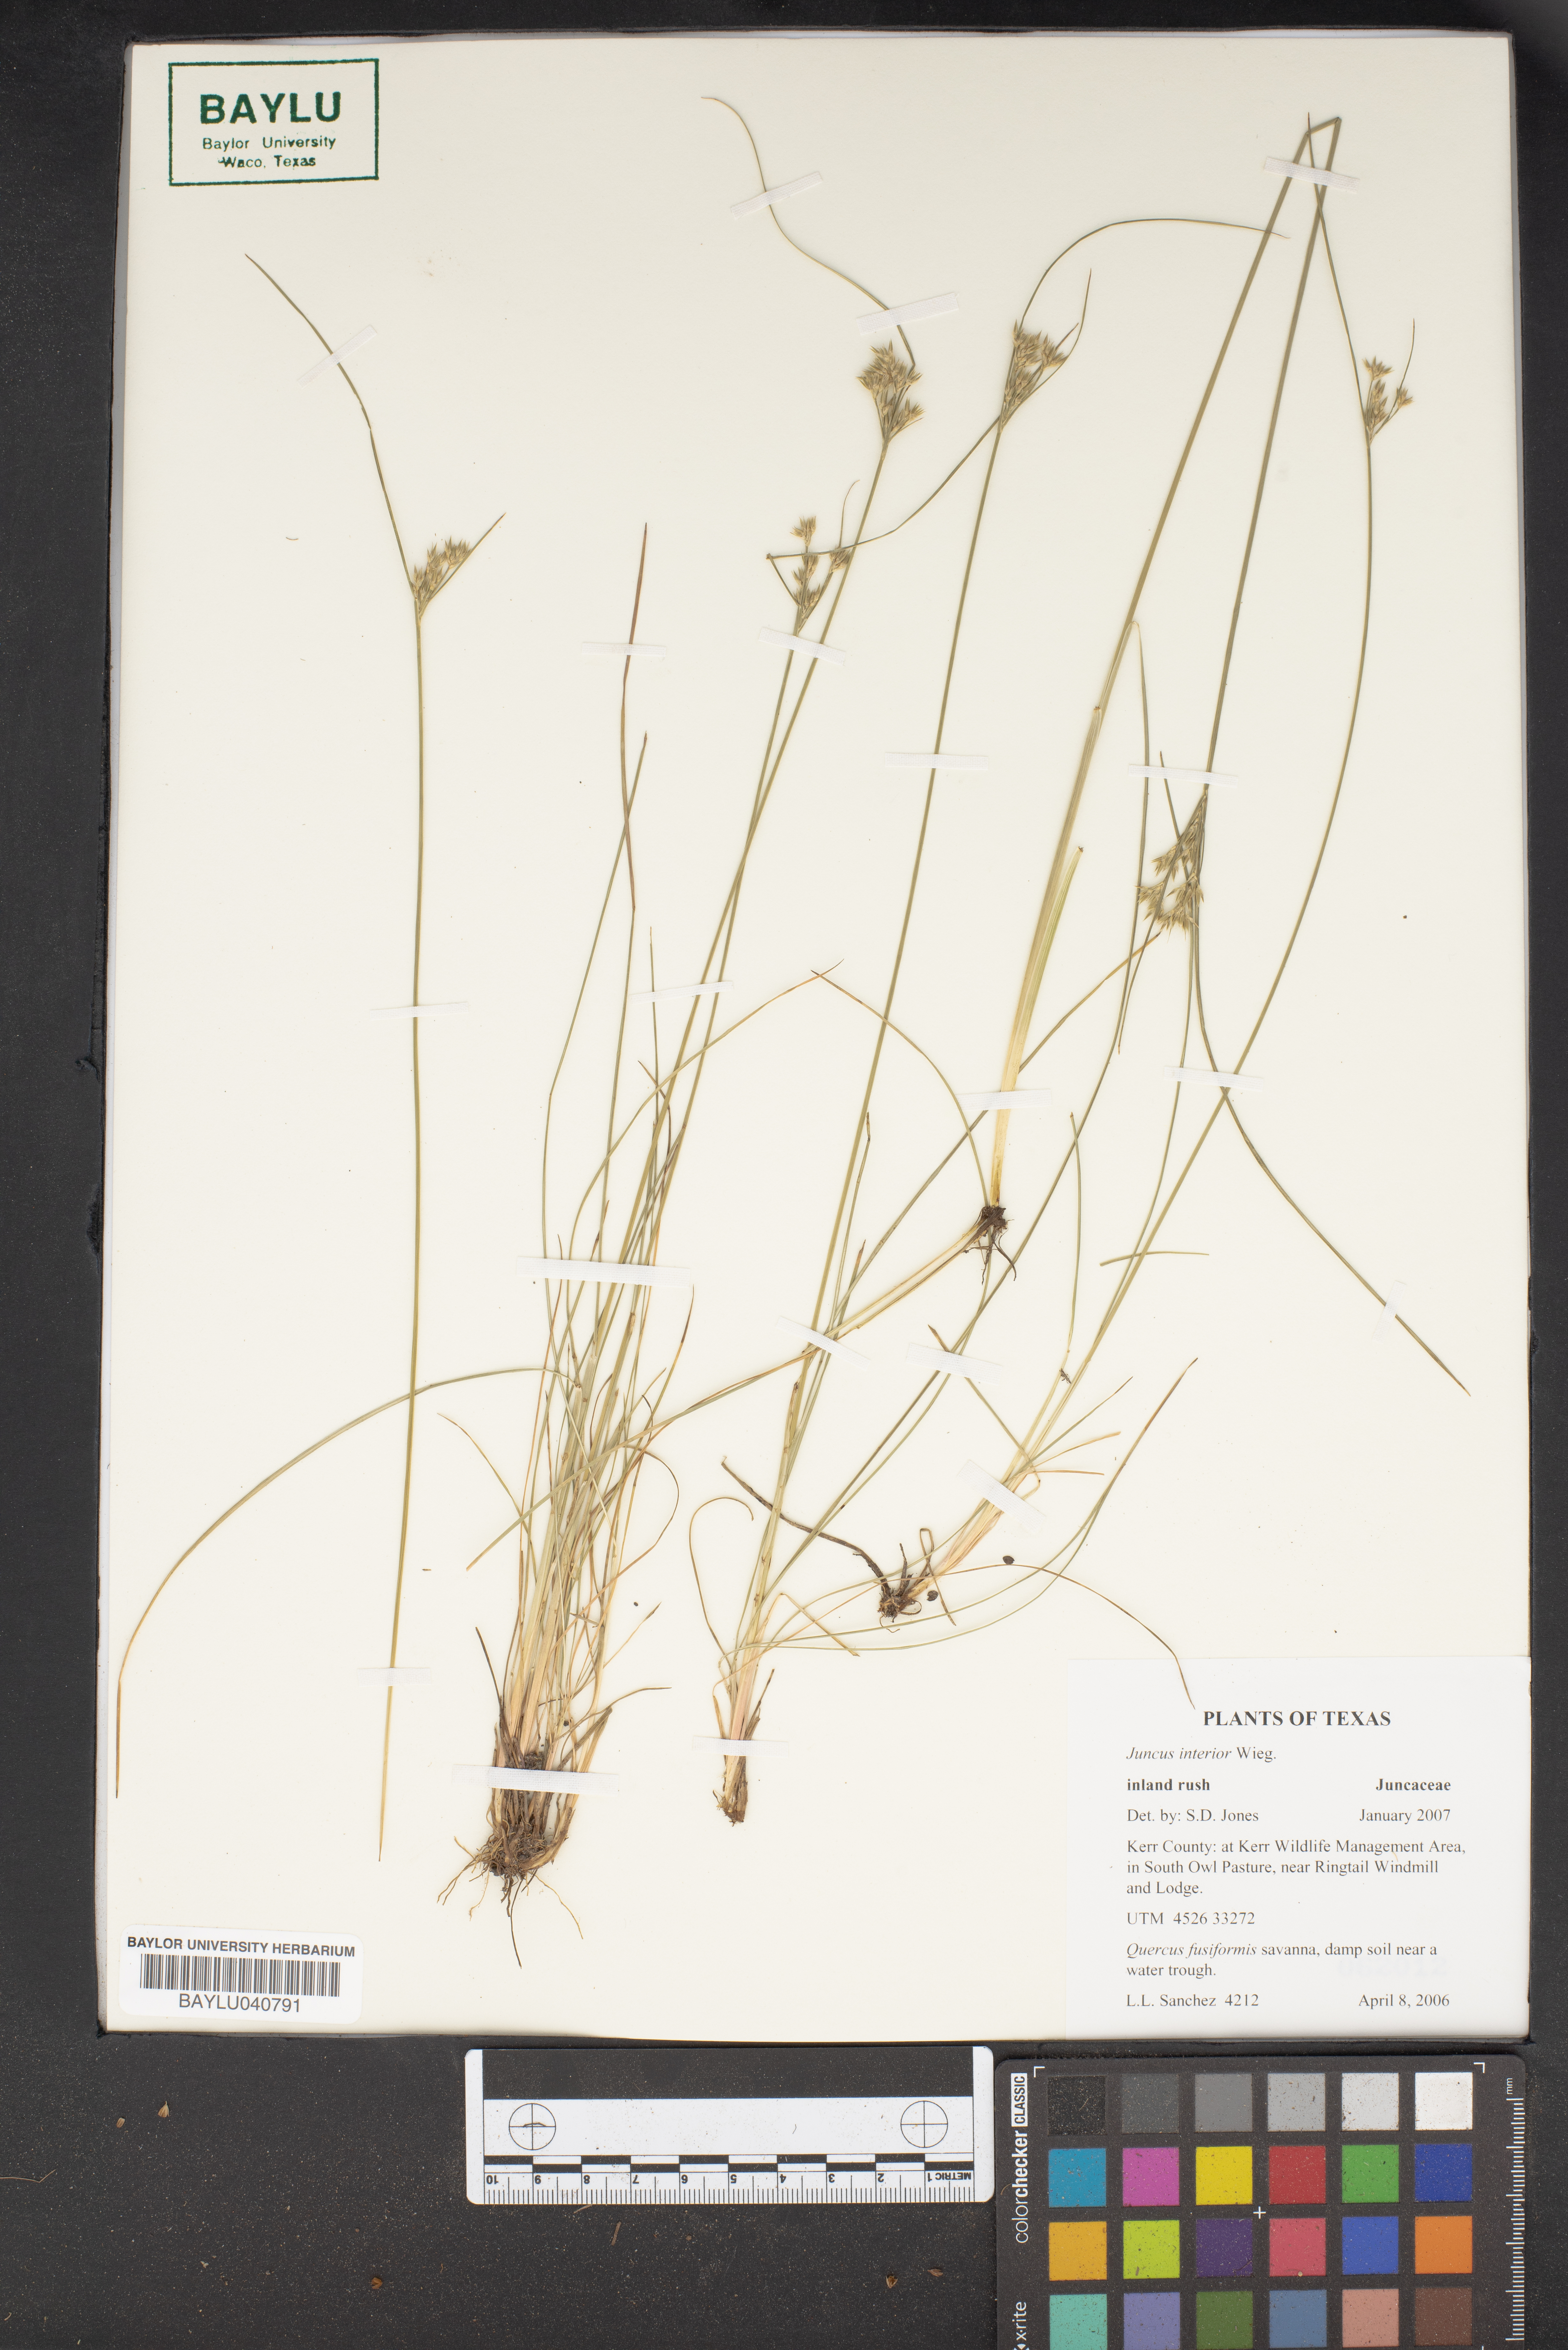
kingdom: Plantae
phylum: Tracheophyta
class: Liliopsida
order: Poales
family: Juncaceae
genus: Juncus
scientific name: Juncus interior
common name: Interior rush
